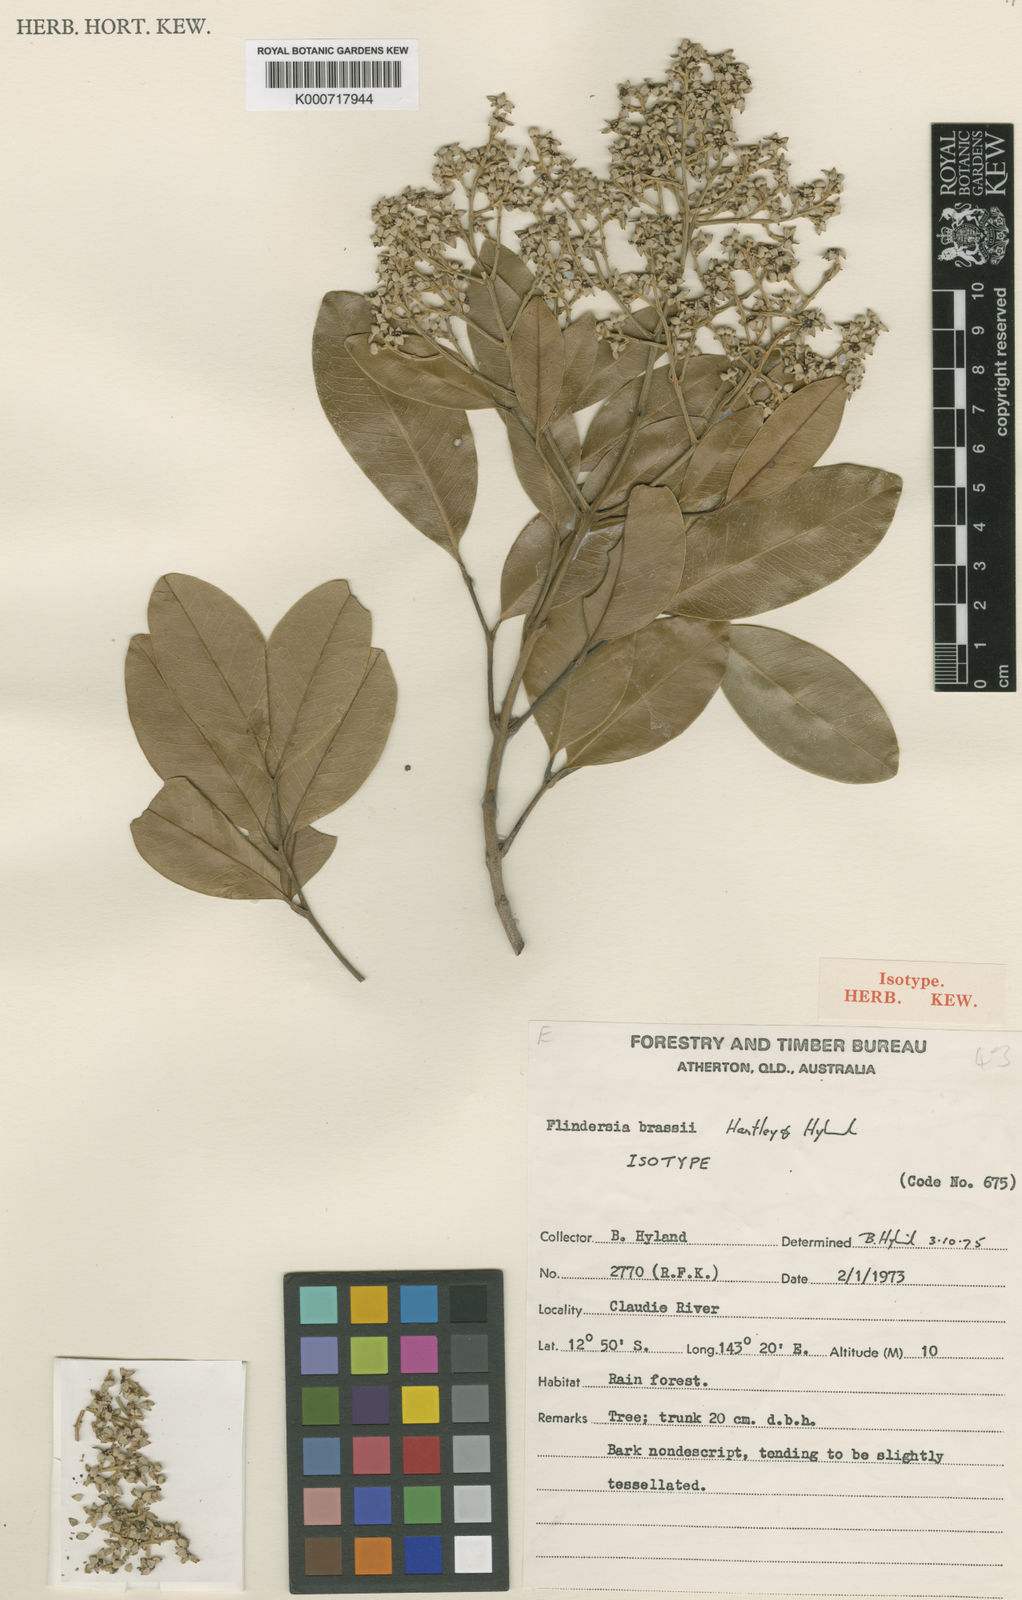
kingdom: Plantae
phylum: Tracheophyta
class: Magnoliopsida
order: Sapindales
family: Rutaceae
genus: Flindersia
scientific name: Flindersia brassii
